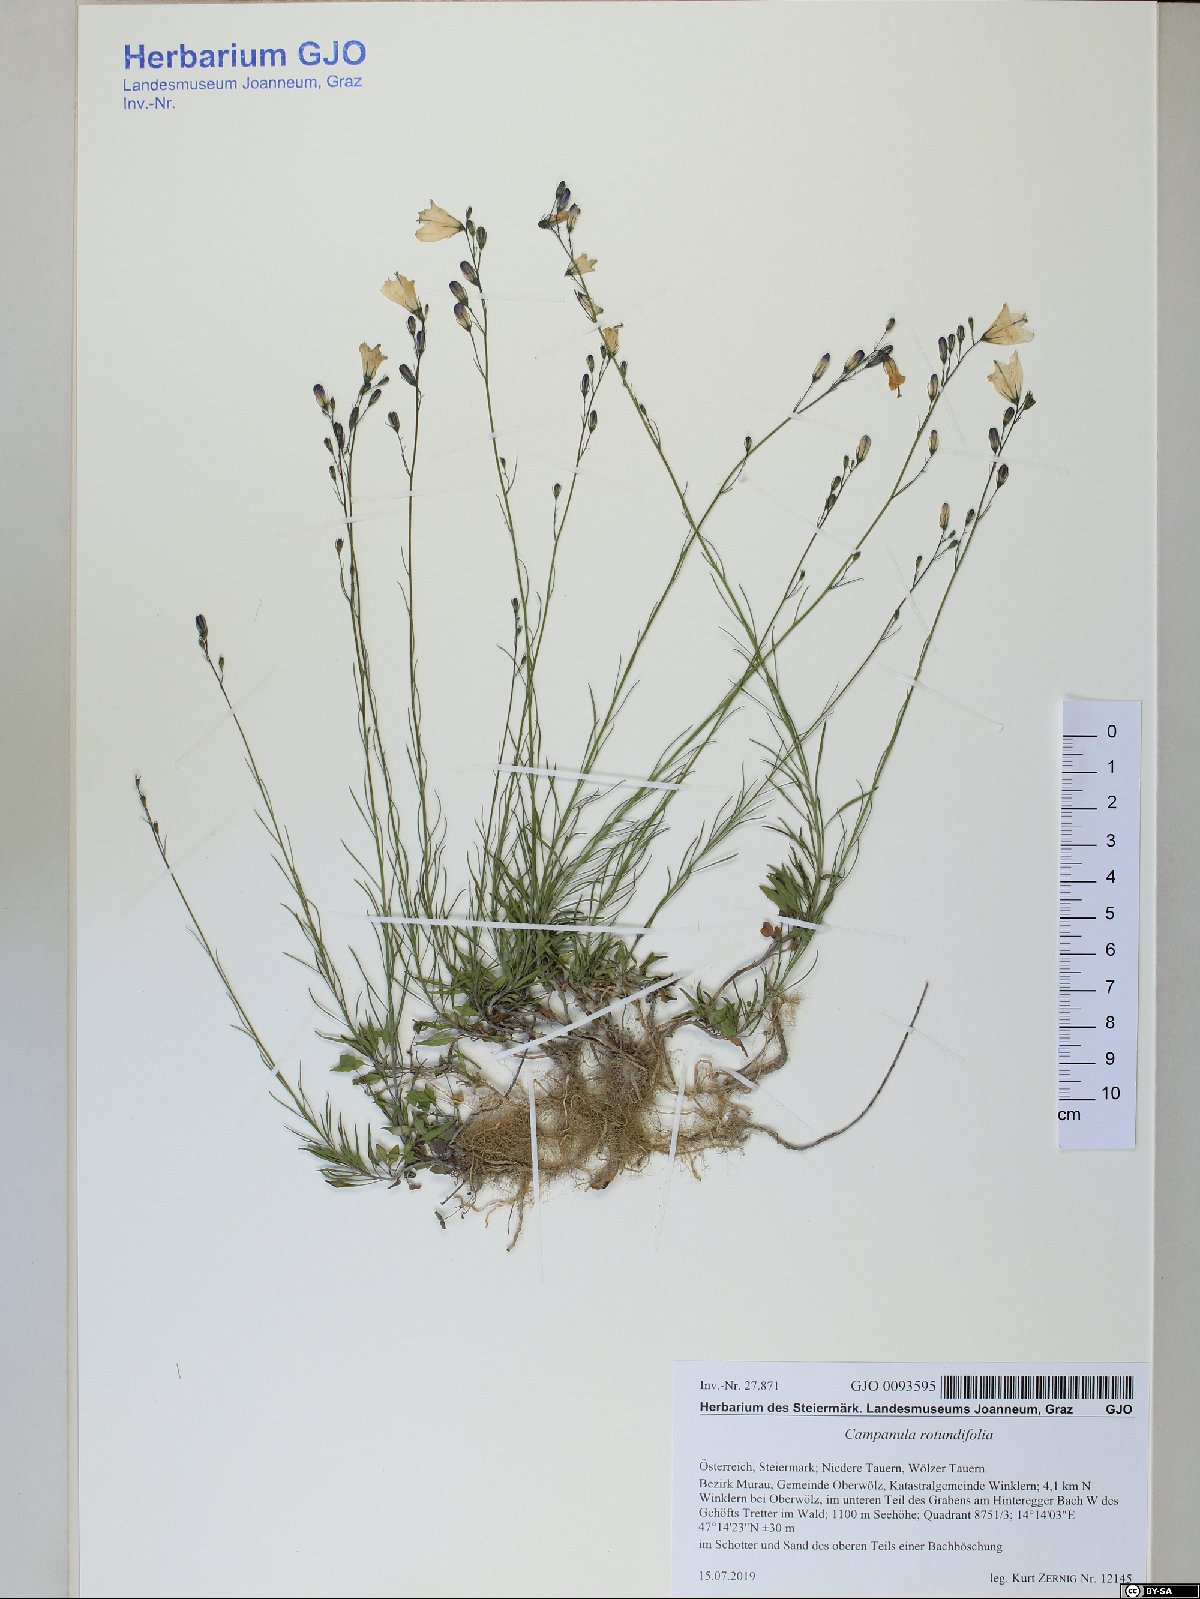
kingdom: Plantae
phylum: Tracheophyta
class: Magnoliopsida
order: Asterales
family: Campanulaceae
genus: Campanula
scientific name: Campanula rotundifolia
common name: Harebell
